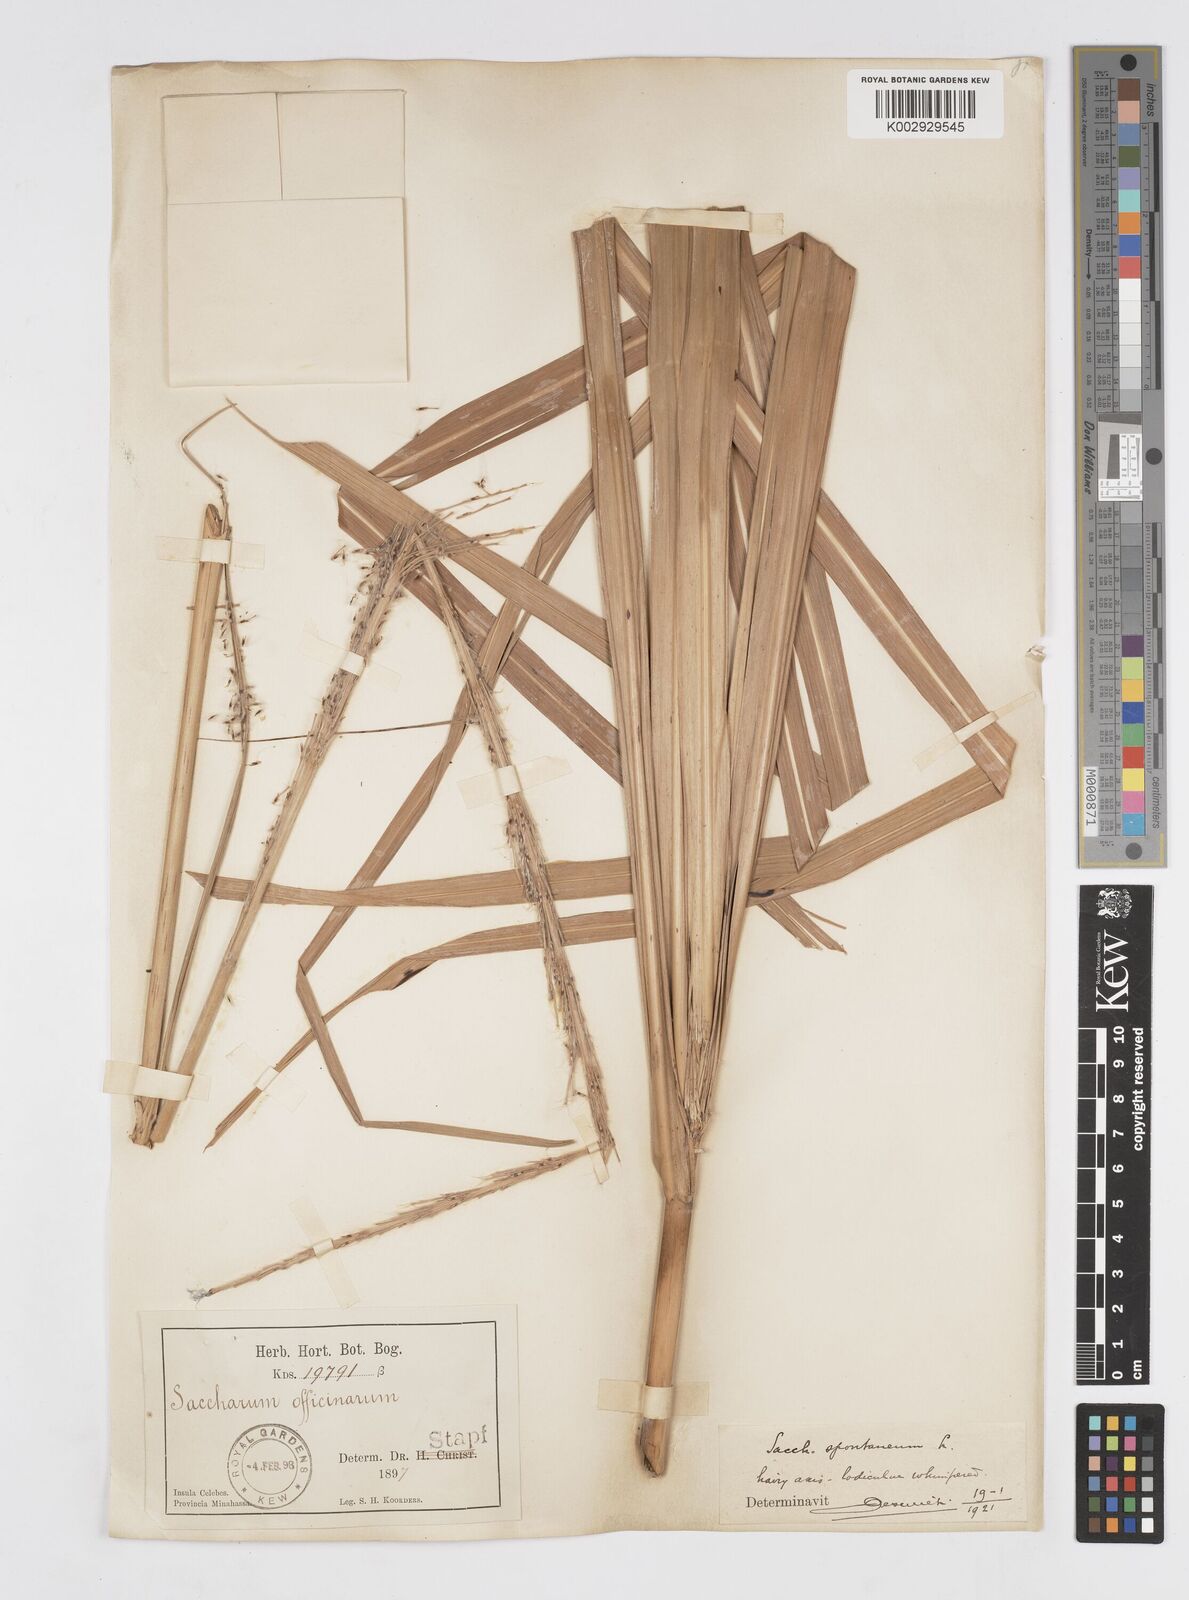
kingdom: Plantae
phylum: Tracheophyta
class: Liliopsida
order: Poales
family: Poaceae
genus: Tripidium
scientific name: Tripidium arundinaceum
